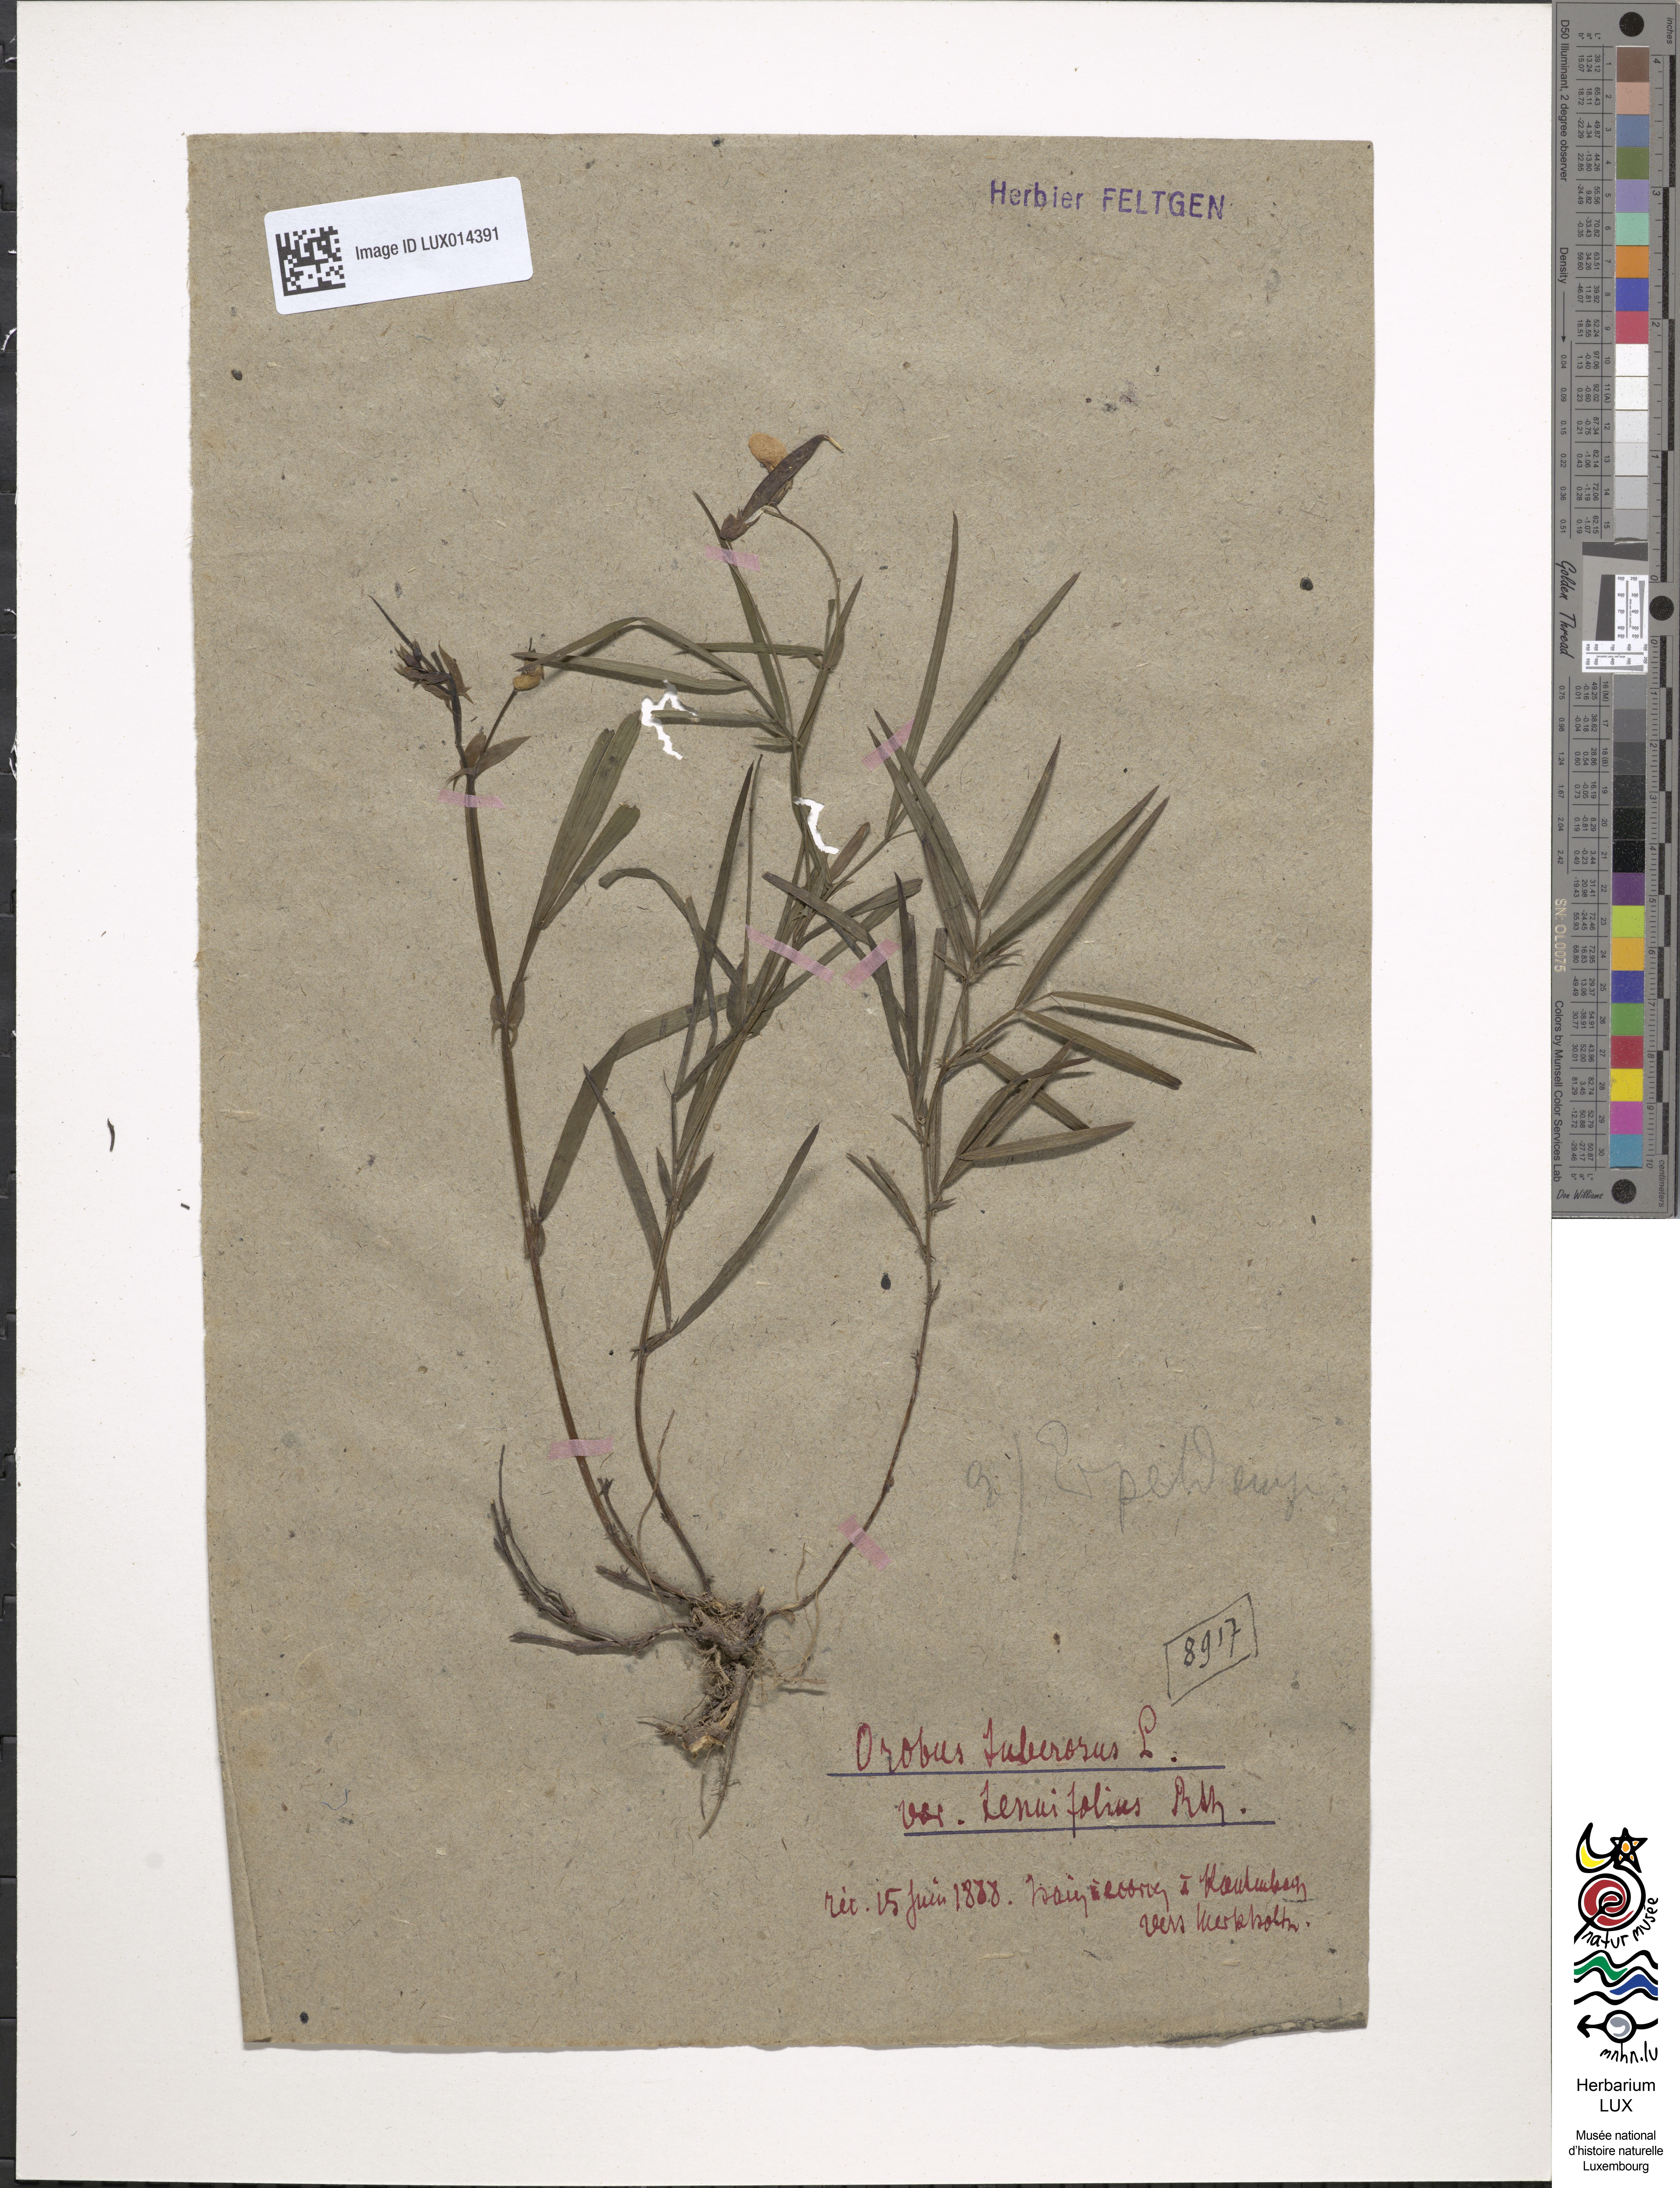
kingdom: Plantae
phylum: Tracheophyta
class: Magnoliopsida
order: Fabales
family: Fabaceae
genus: Lathyrus
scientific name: Lathyrus linifolius
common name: Bitter-vetch
